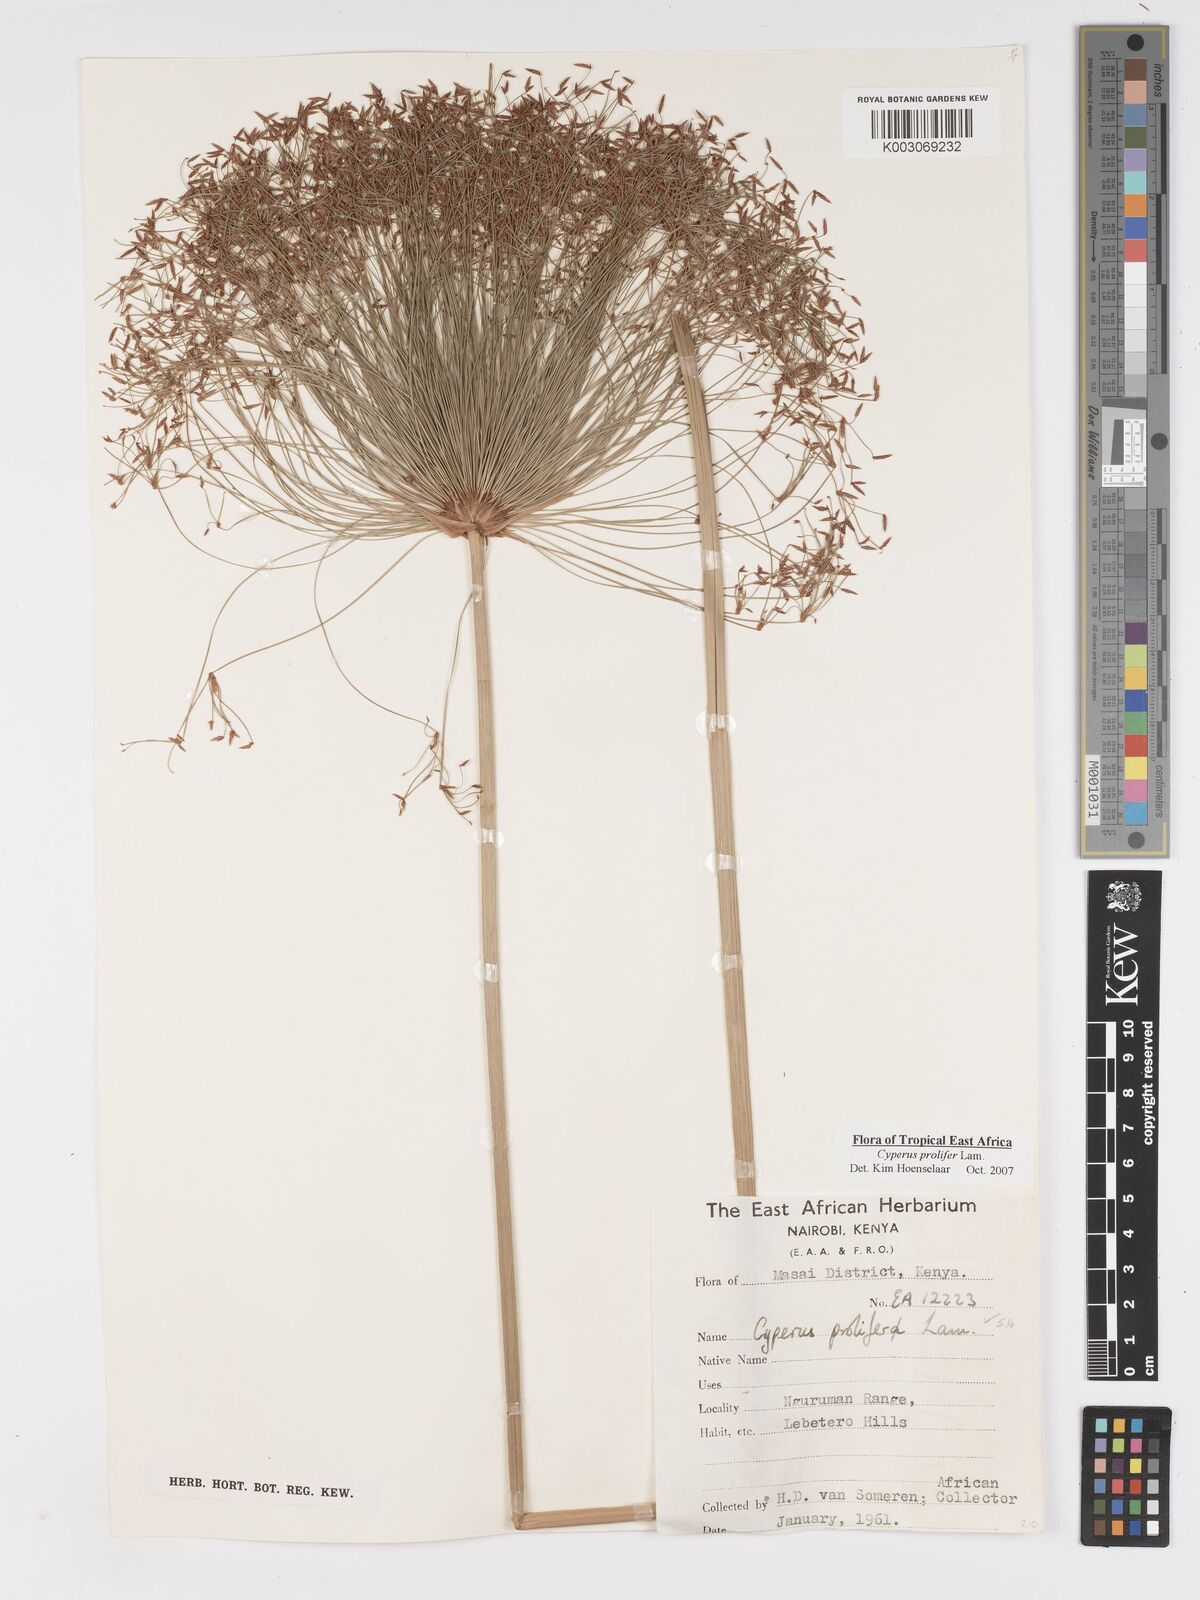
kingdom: Plantae
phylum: Tracheophyta
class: Liliopsida
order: Poales
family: Cyperaceae
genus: Cyperus
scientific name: Cyperus prolifer
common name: Miniature flatsedge
